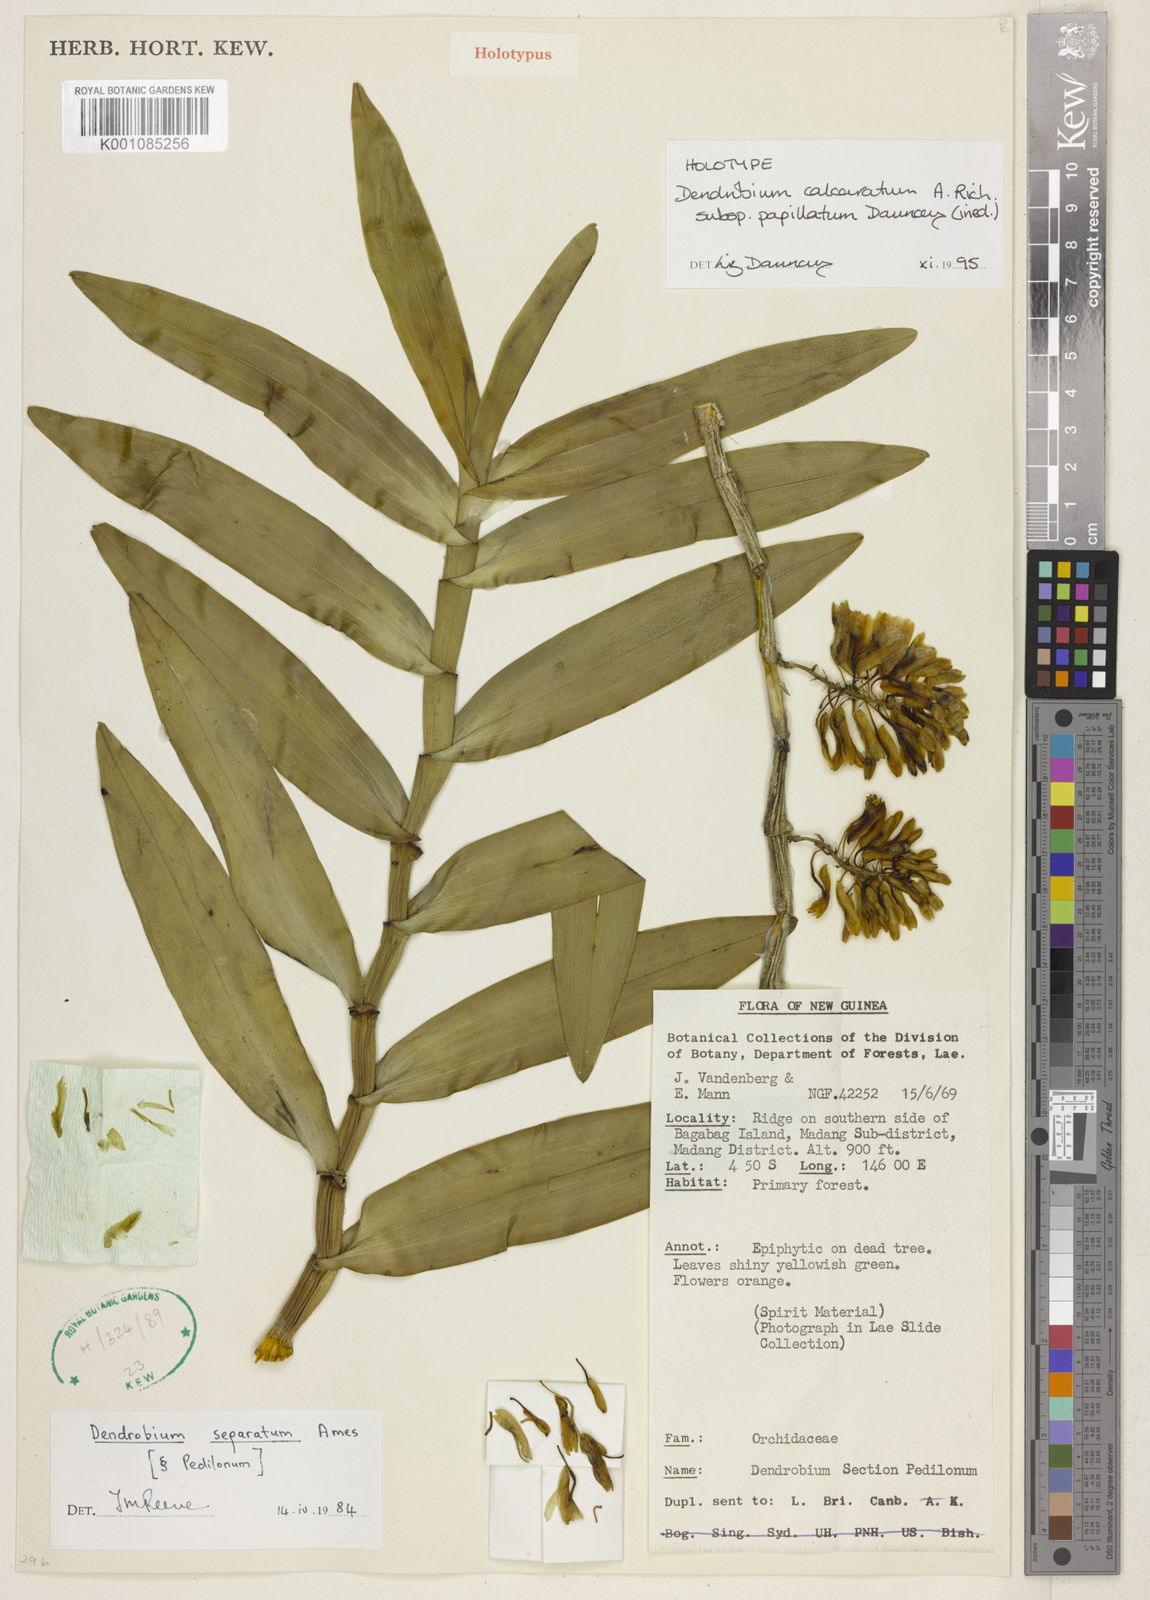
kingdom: Plantae
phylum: Tracheophyta
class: Liliopsida
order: Asparagales
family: Orchidaceae
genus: Dendrobium
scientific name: Dendrobium calcaratum
